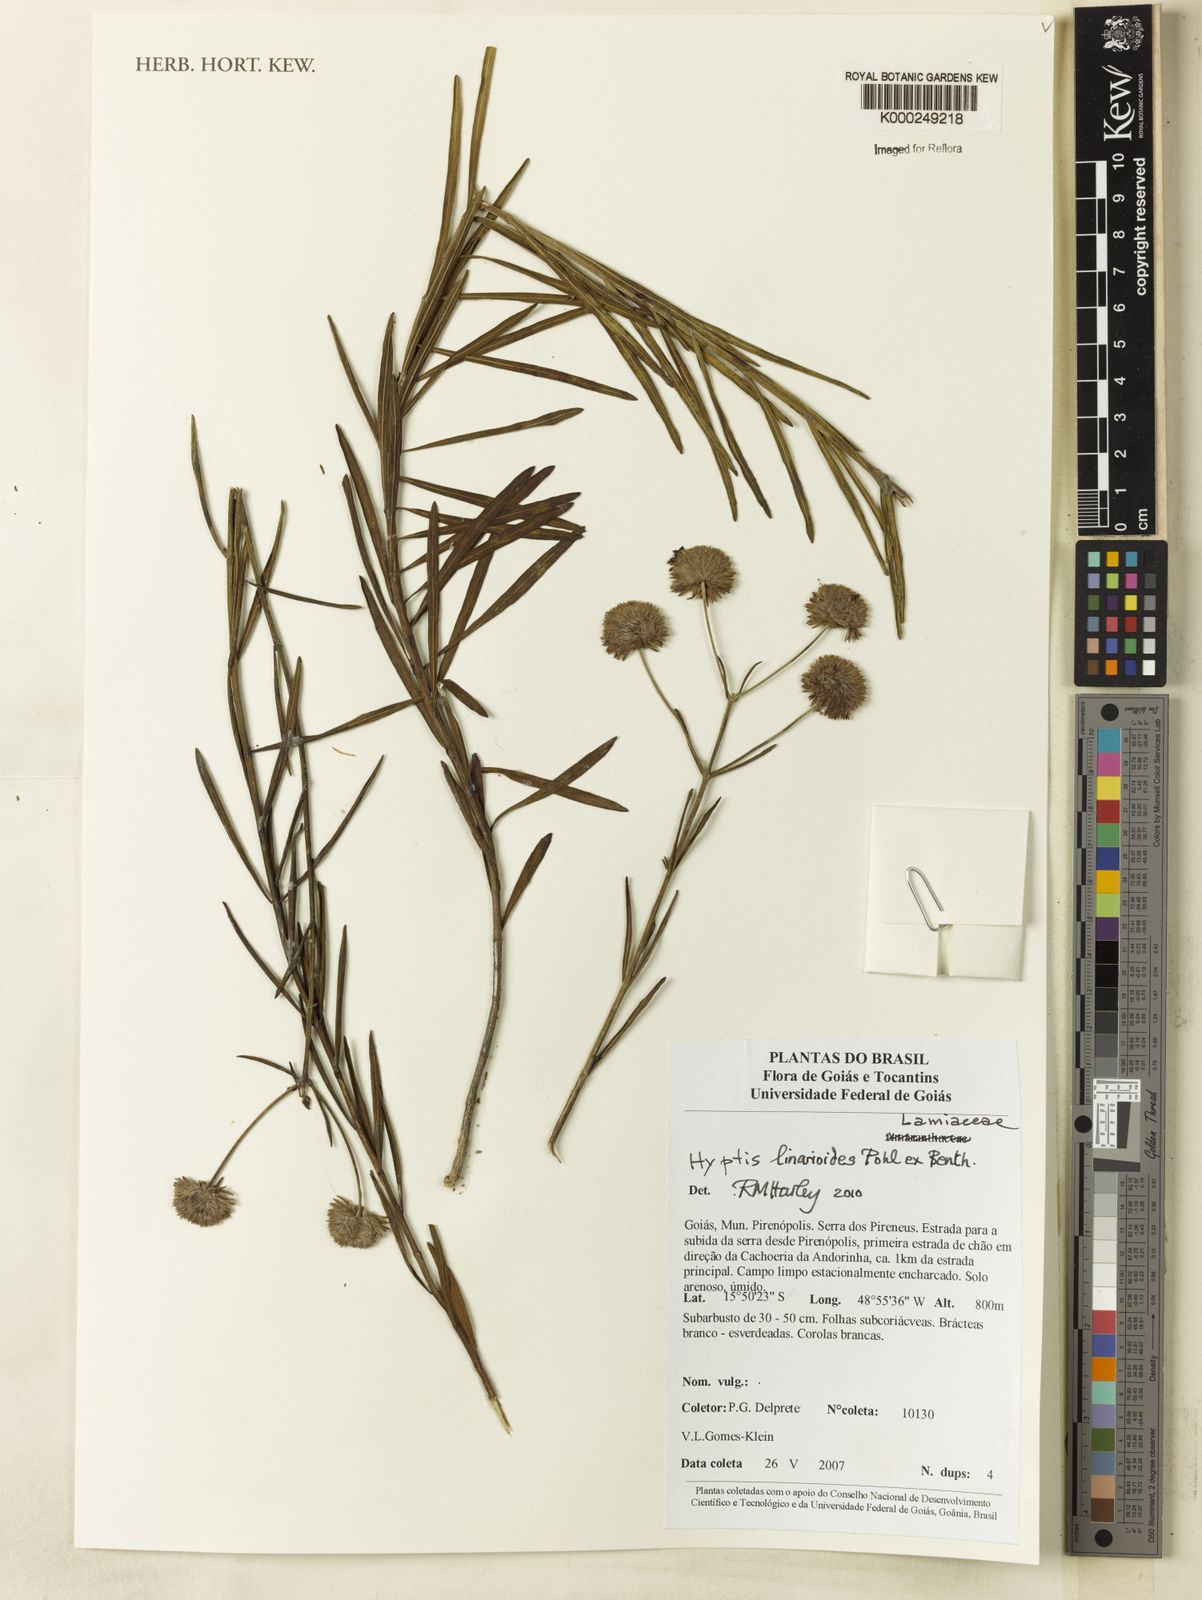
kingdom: Plantae
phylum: Tracheophyta
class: Magnoliopsida
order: Lamiales
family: Lamiaceae
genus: Hyptis
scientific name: Hyptis linarioides
